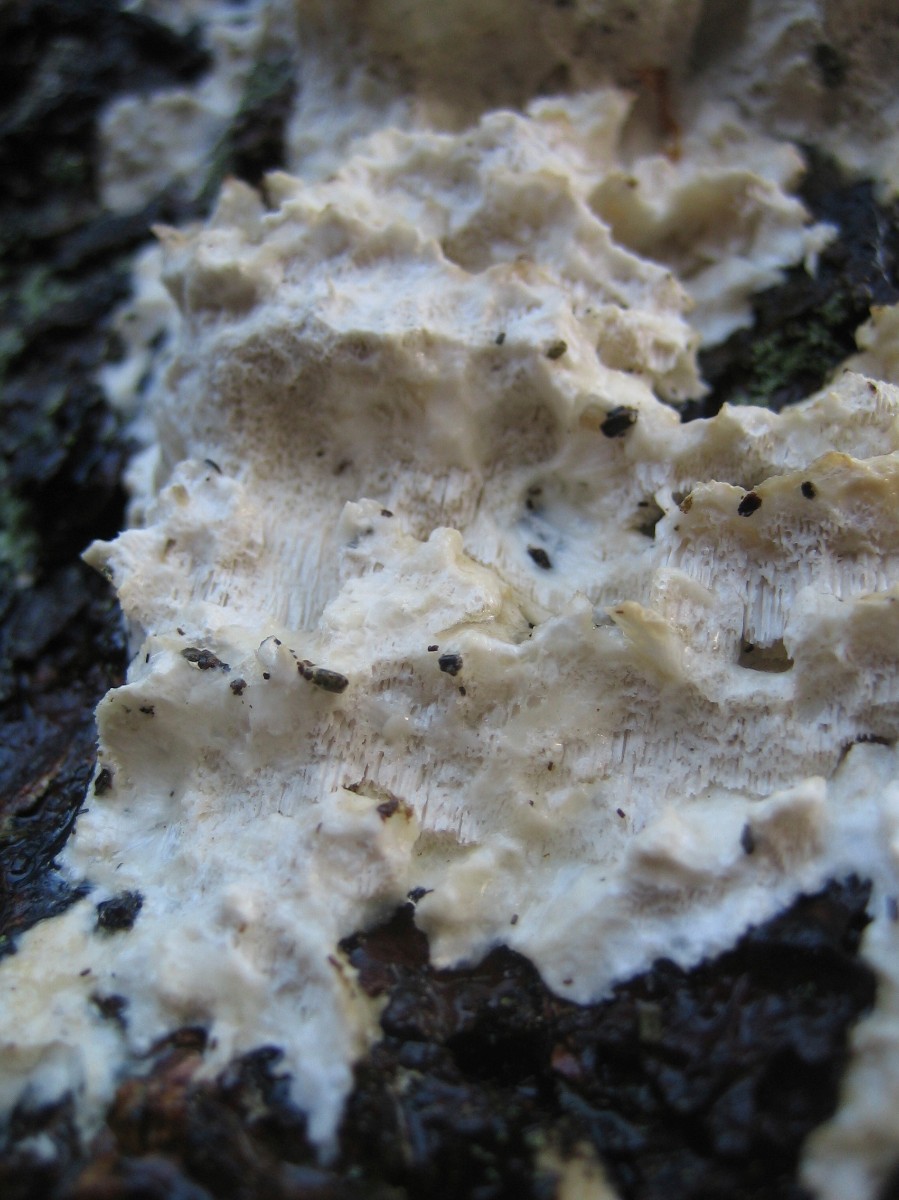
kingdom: Fungi
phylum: Basidiomycota
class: Agaricomycetes
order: Polyporales
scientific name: Polyporales
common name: poresvampordenen
